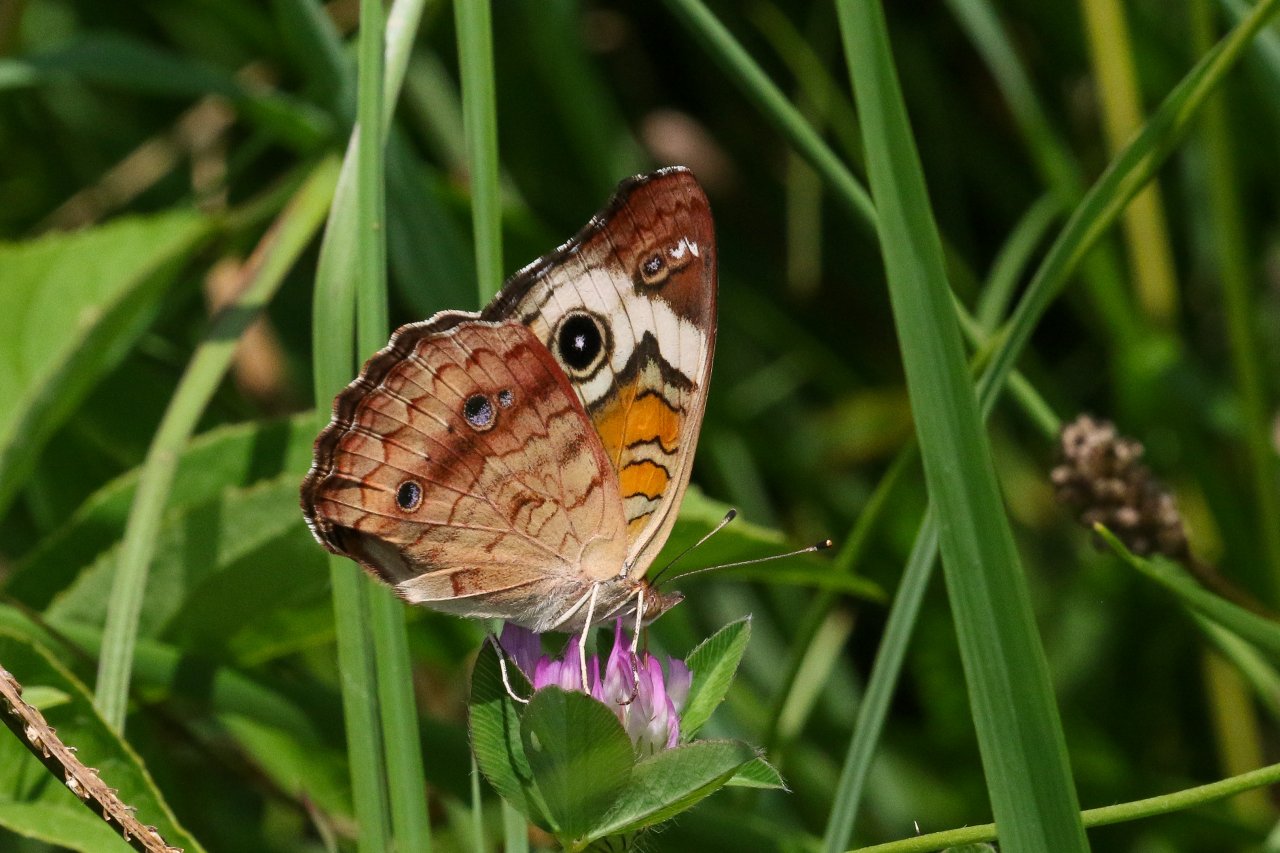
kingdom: Animalia
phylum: Arthropoda
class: Insecta
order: Lepidoptera
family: Nymphalidae
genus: Junonia
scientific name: Junonia coenia
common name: Common Buckeye
